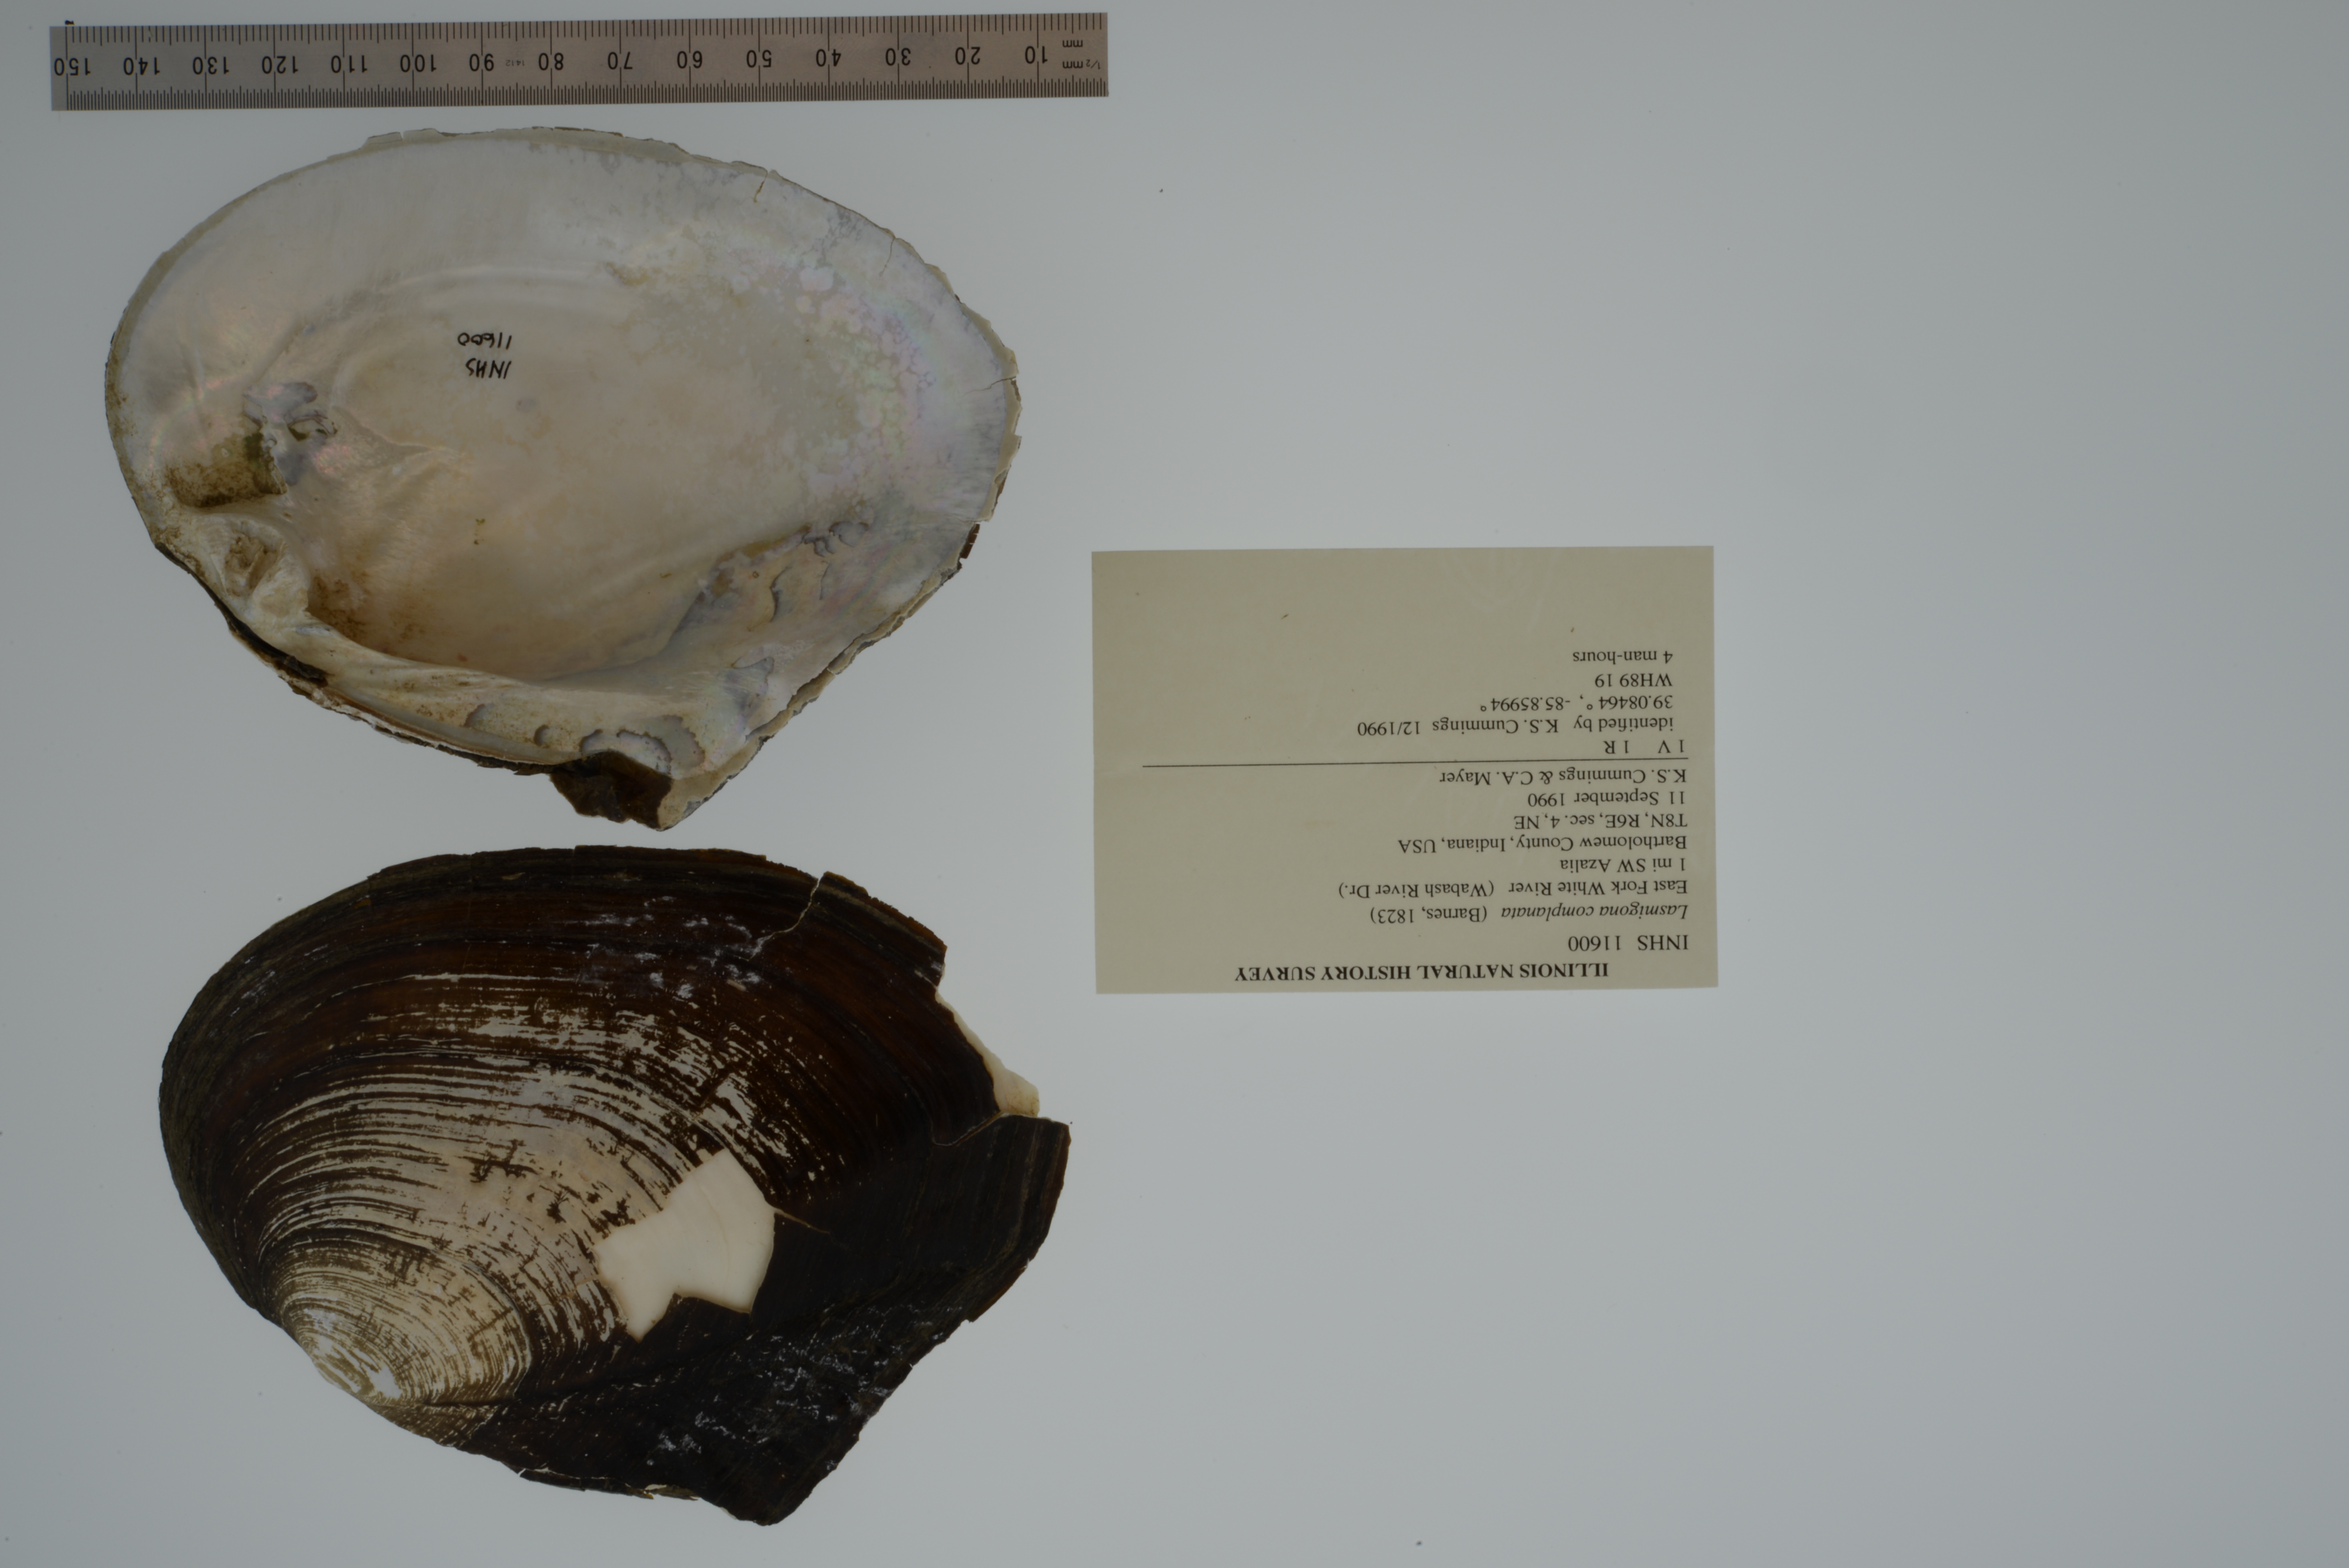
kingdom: Animalia
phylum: Mollusca
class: Bivalvia
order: Unionida
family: Unionidae
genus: Lasmigona
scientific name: Lasmigona complanata
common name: White heelsplitter
